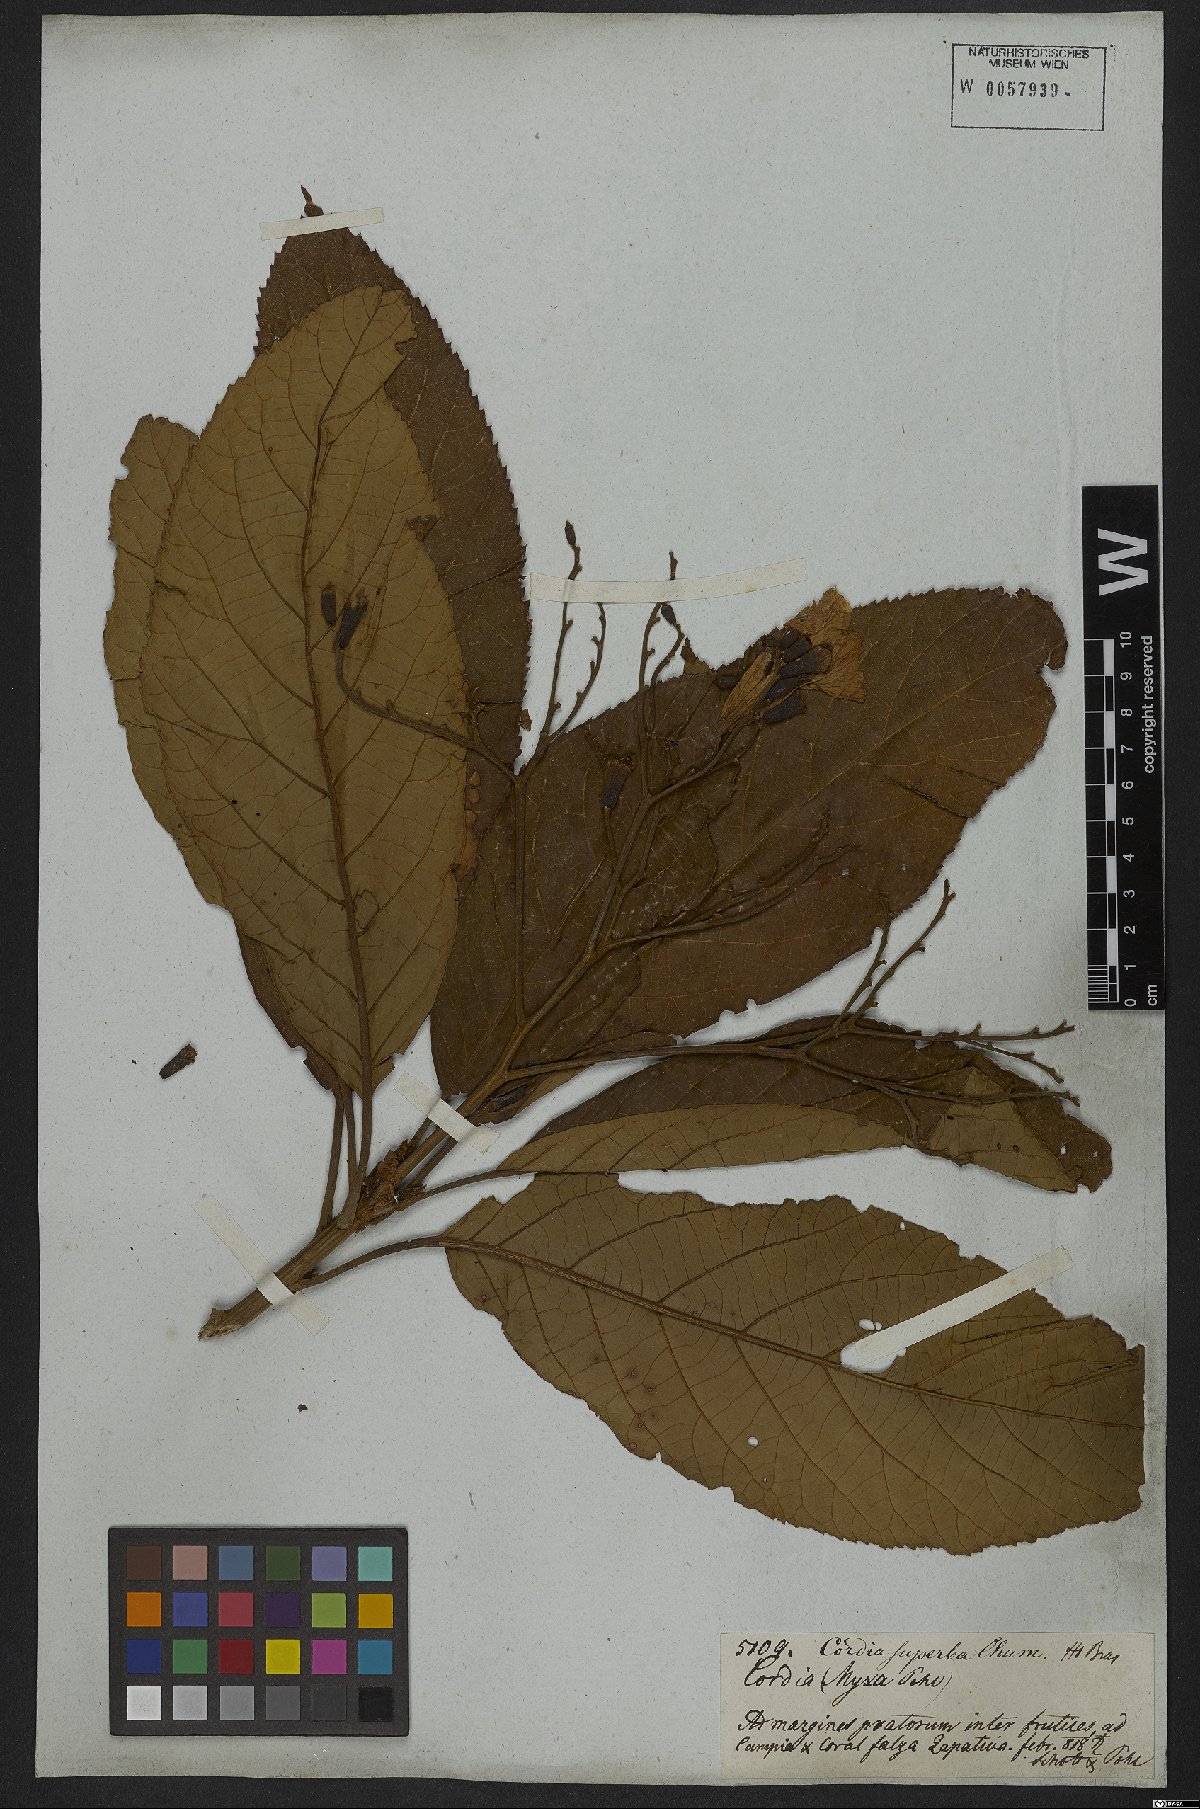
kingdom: Plantae
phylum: Tracheophyta
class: Magnoliopsida
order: Boraginales
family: Cordiaceae
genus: Cordia
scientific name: Cordia superba
